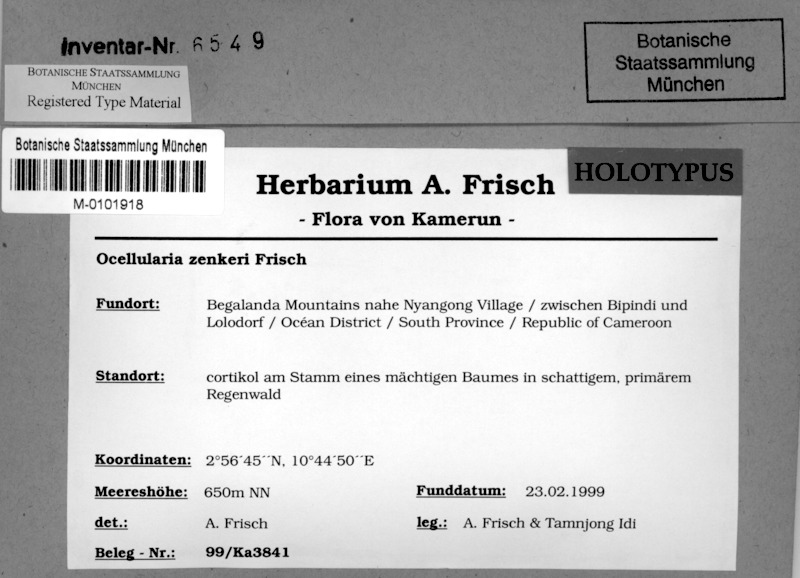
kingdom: Fungi
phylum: Ascomycota
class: Lecanoromycetes
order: Ostropales
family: Graphidaceae
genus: Ocellularia
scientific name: Ocellularia zenkeri
